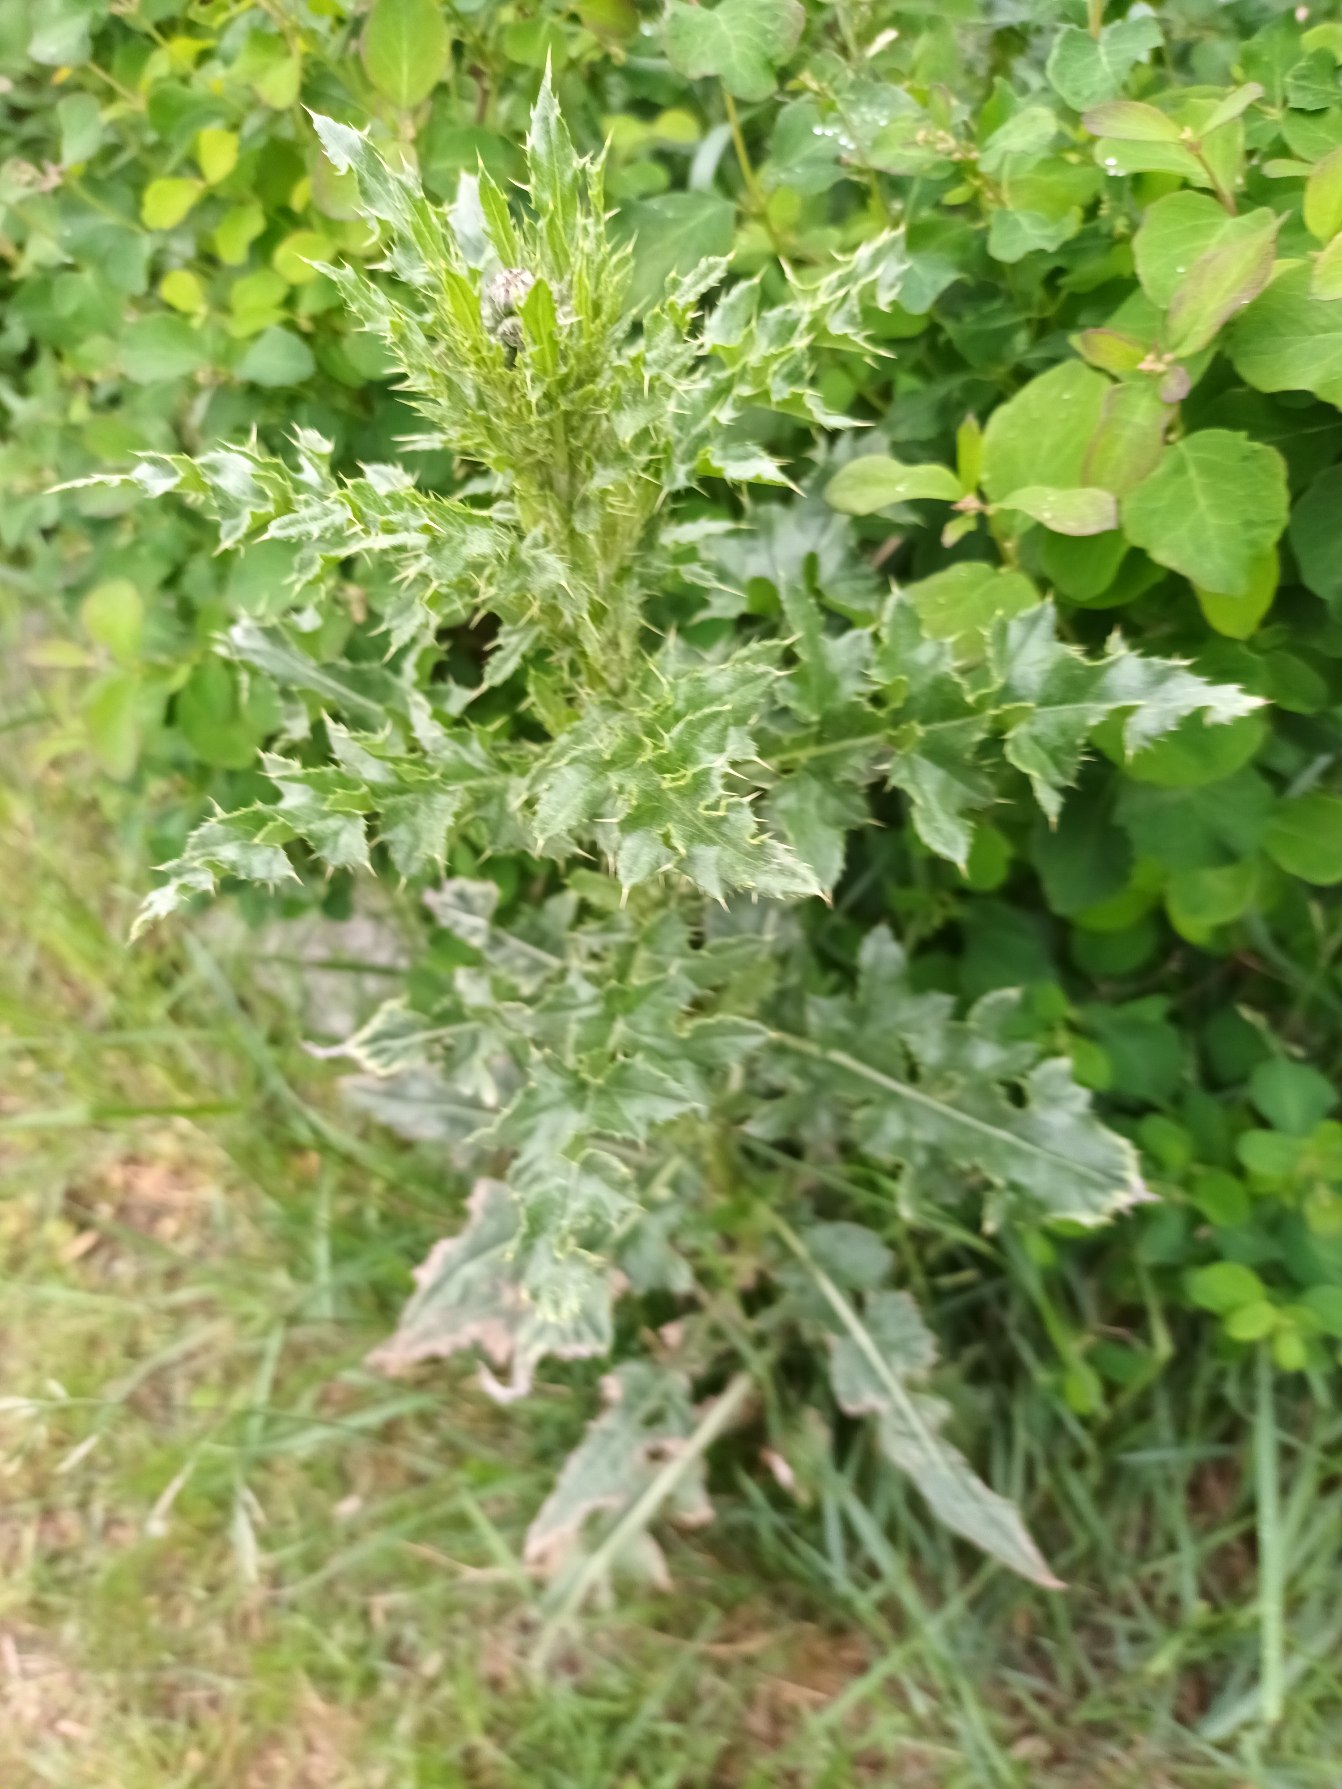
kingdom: Plantae
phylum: Tracheophyta
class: Magnoliopsida
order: Asterales
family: Asteraceae
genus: Cirsium
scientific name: Cirsium arvense
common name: Ager-tidsel
